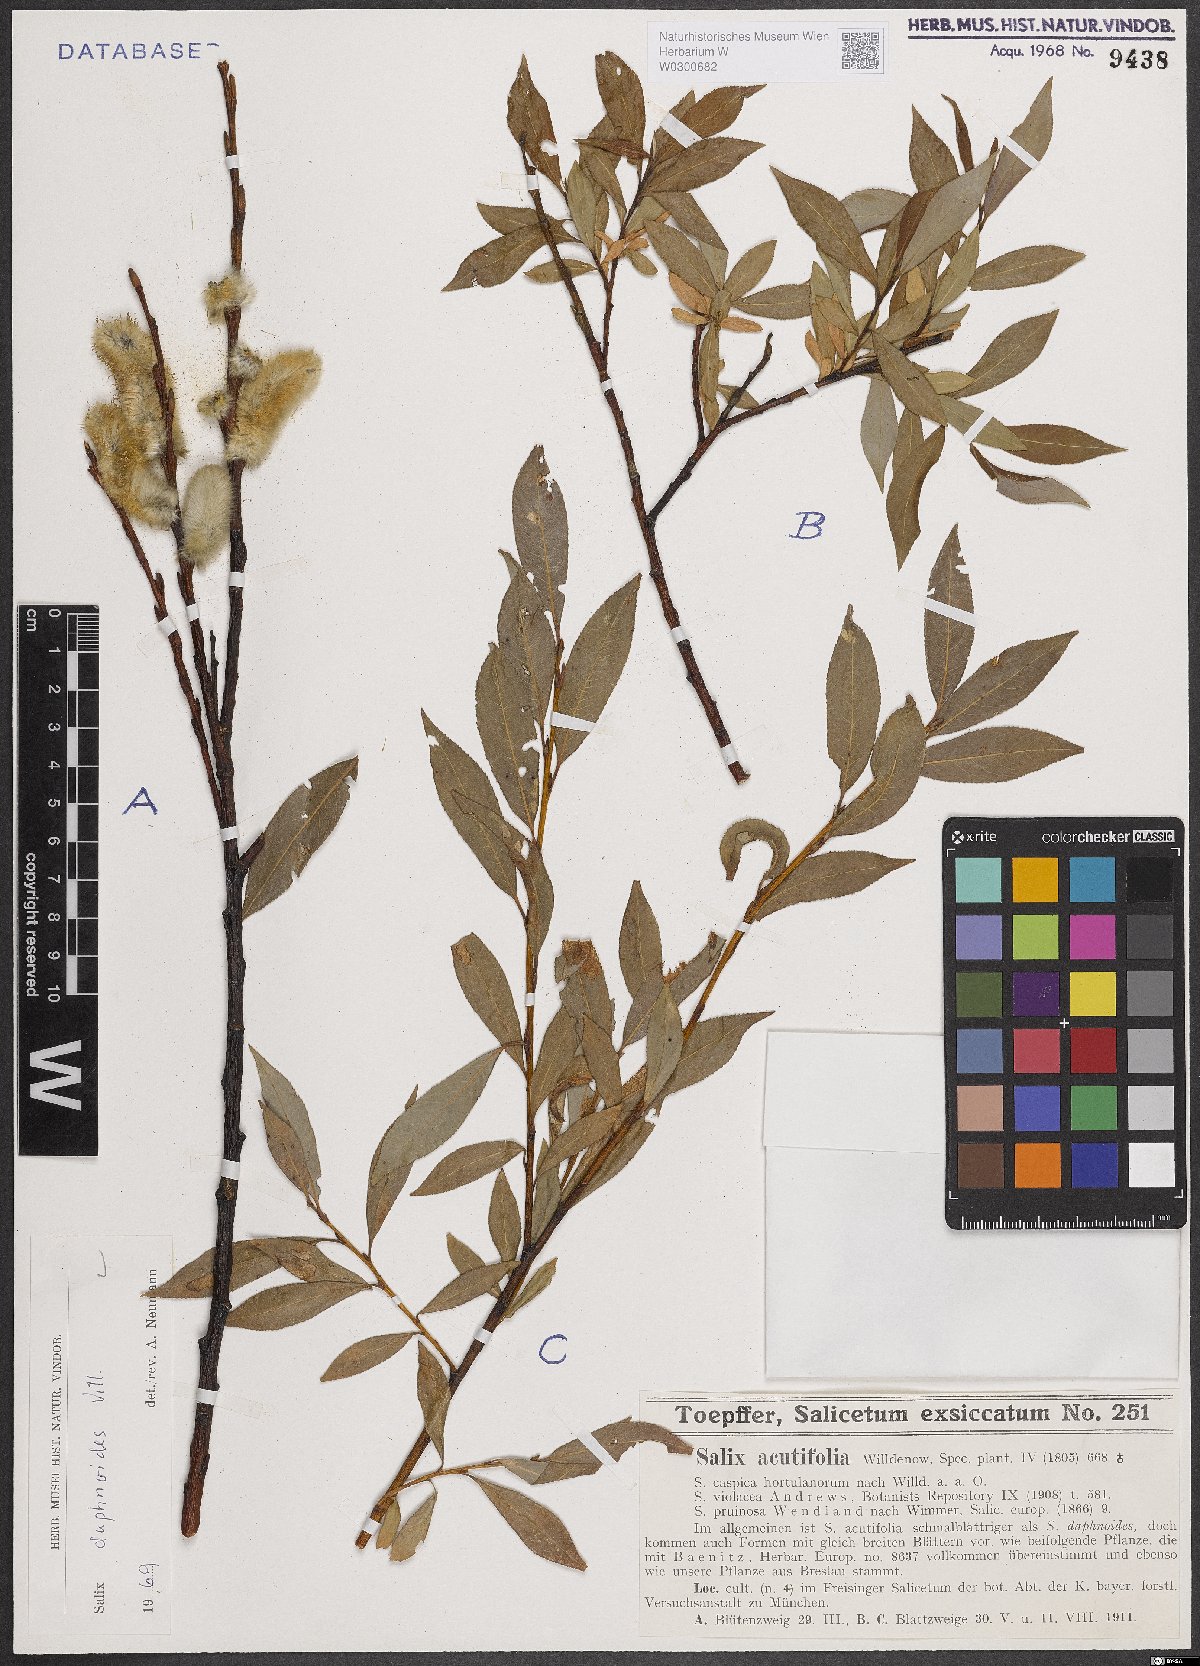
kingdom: Plantae
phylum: Tracheophyta
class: Magnoliopsida
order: Malpighiales
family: Salicaceae
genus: Salix
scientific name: Salix daphnoides
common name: European violet-willow
